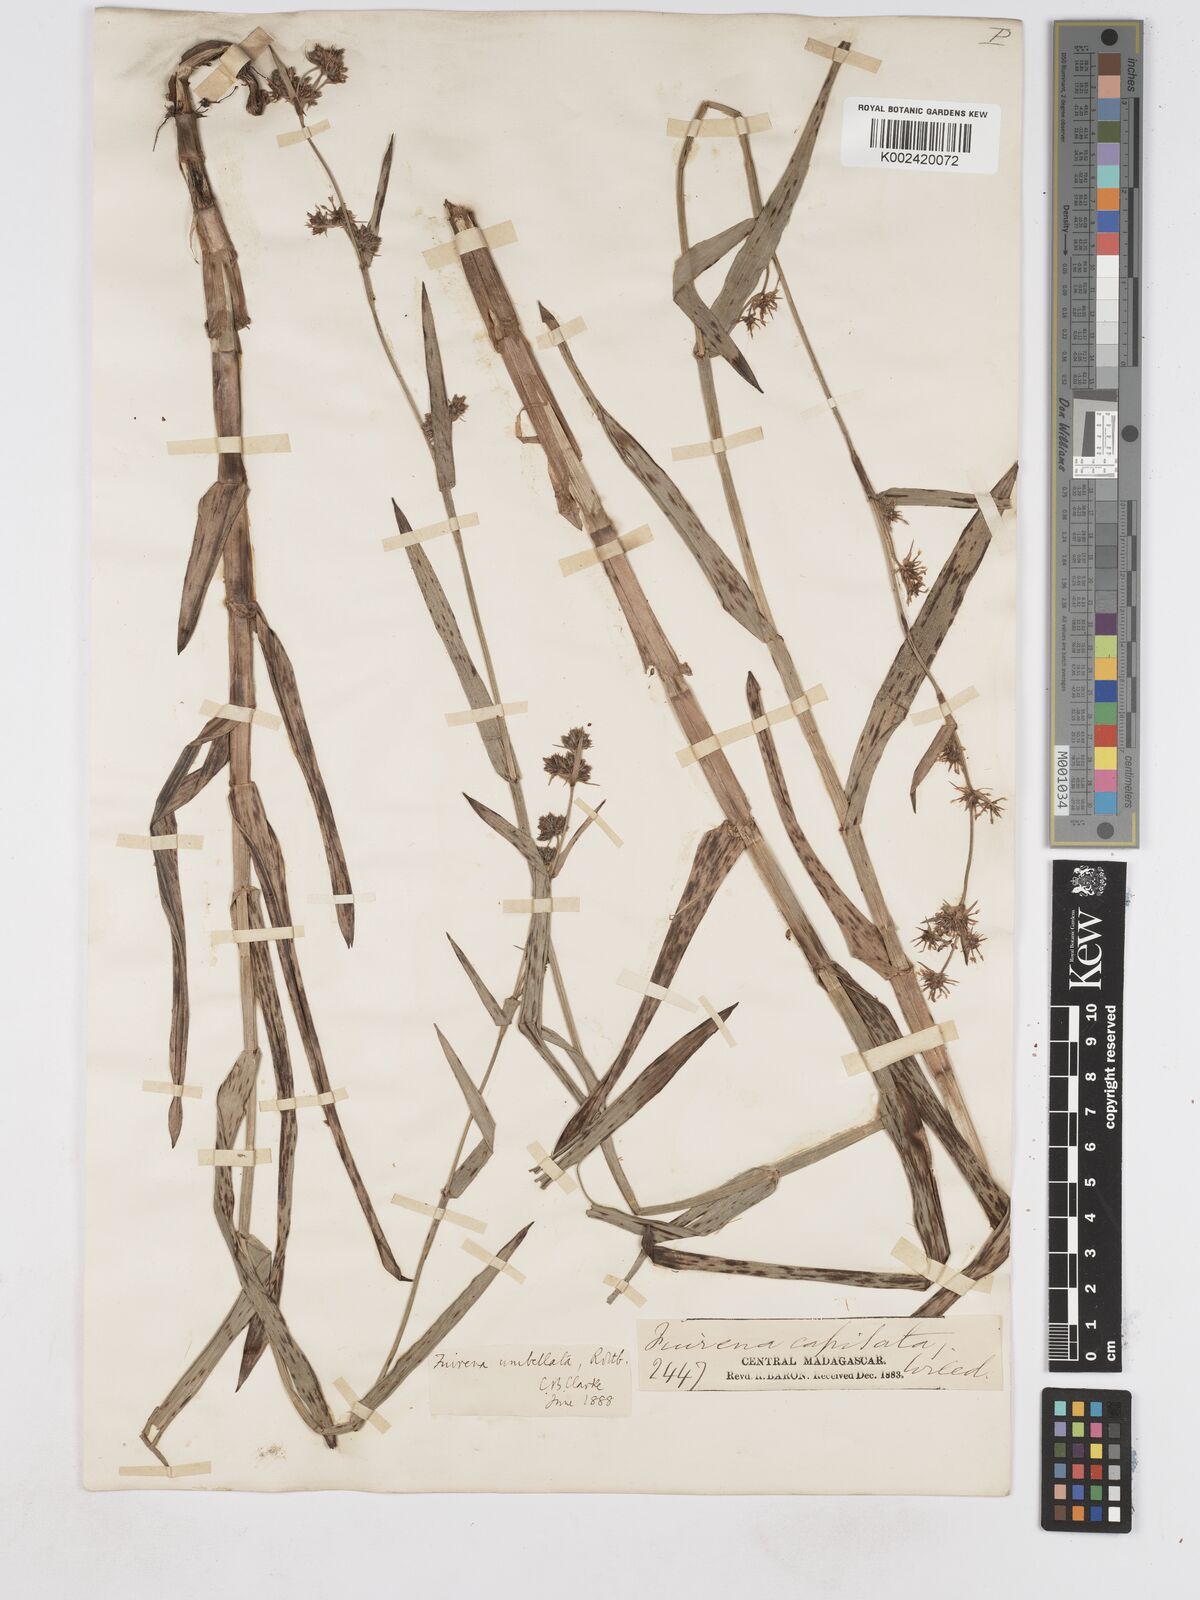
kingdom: Plantae
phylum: Tracheophyta
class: Liliopsida
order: Poales
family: Cyperaceae
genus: Fuirena
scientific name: Fuirena umbellata
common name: Yefen
